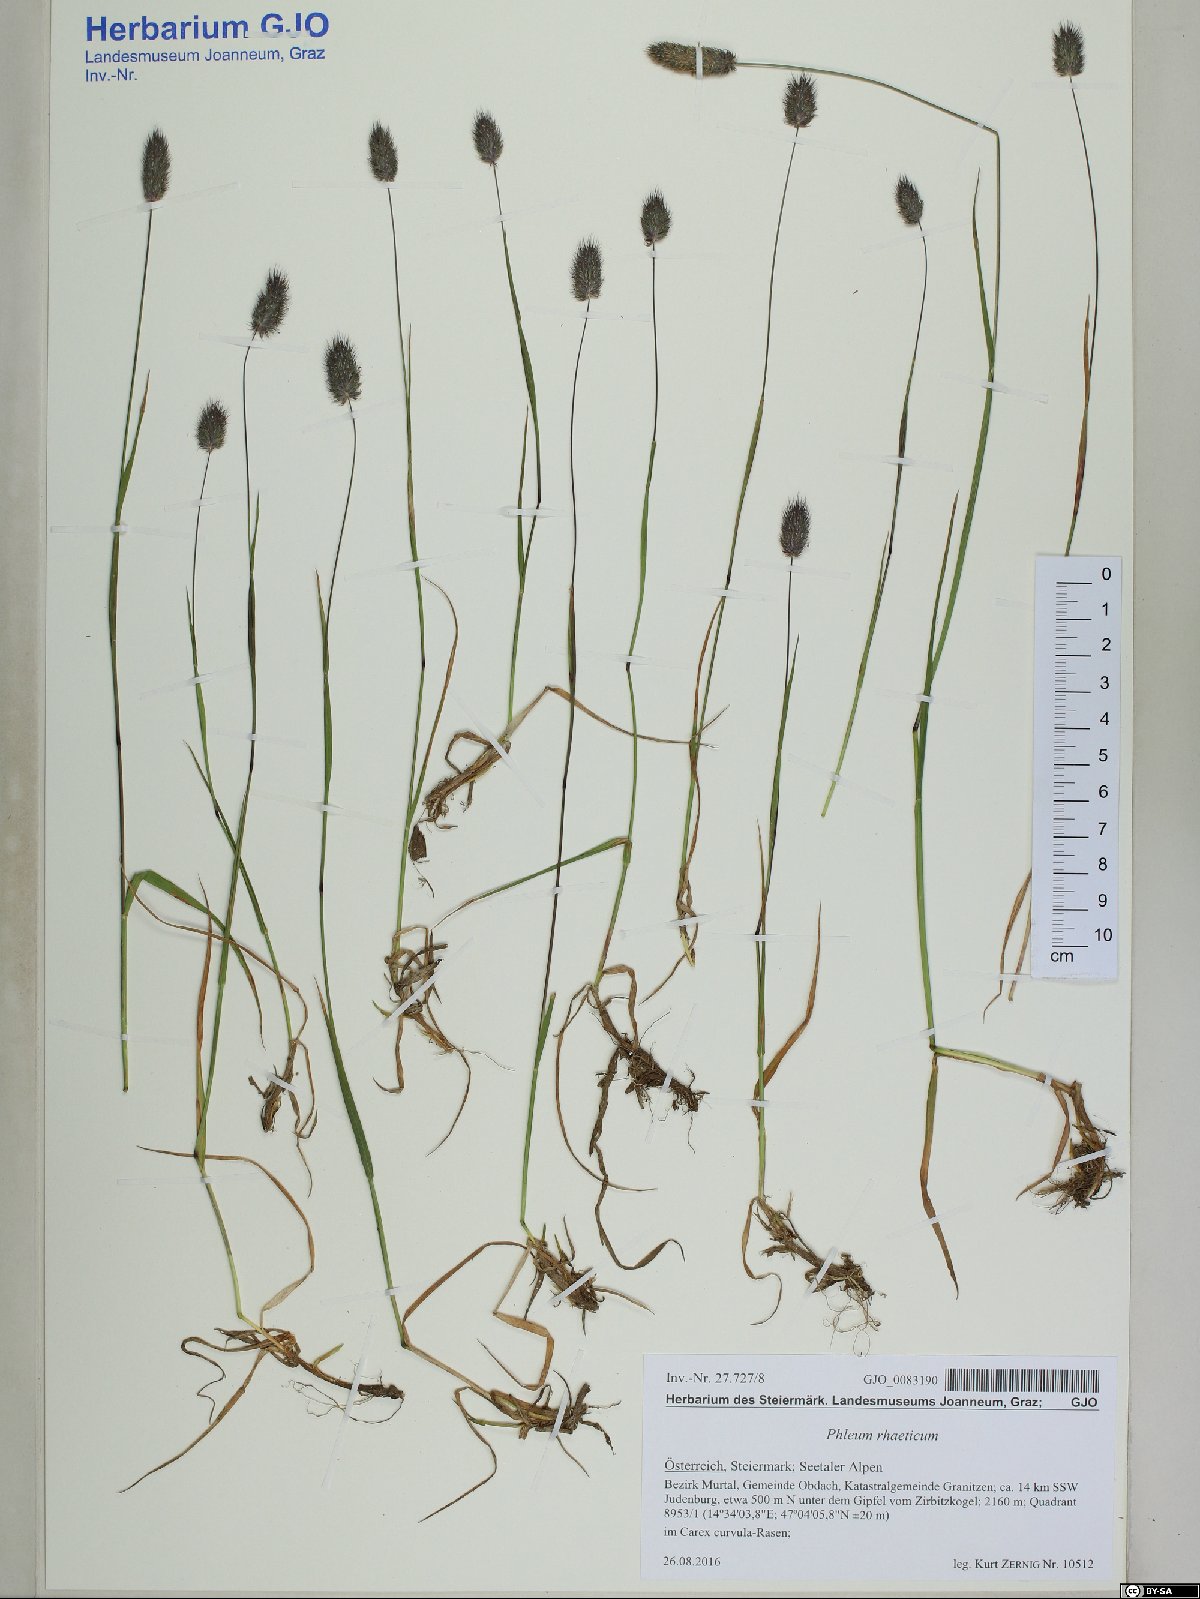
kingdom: Plantae
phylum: Tracheophyta
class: Liliopsida
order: Poales
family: Poaceae
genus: Phleum
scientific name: Phleum alpinum
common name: Alpine cat's-tail
